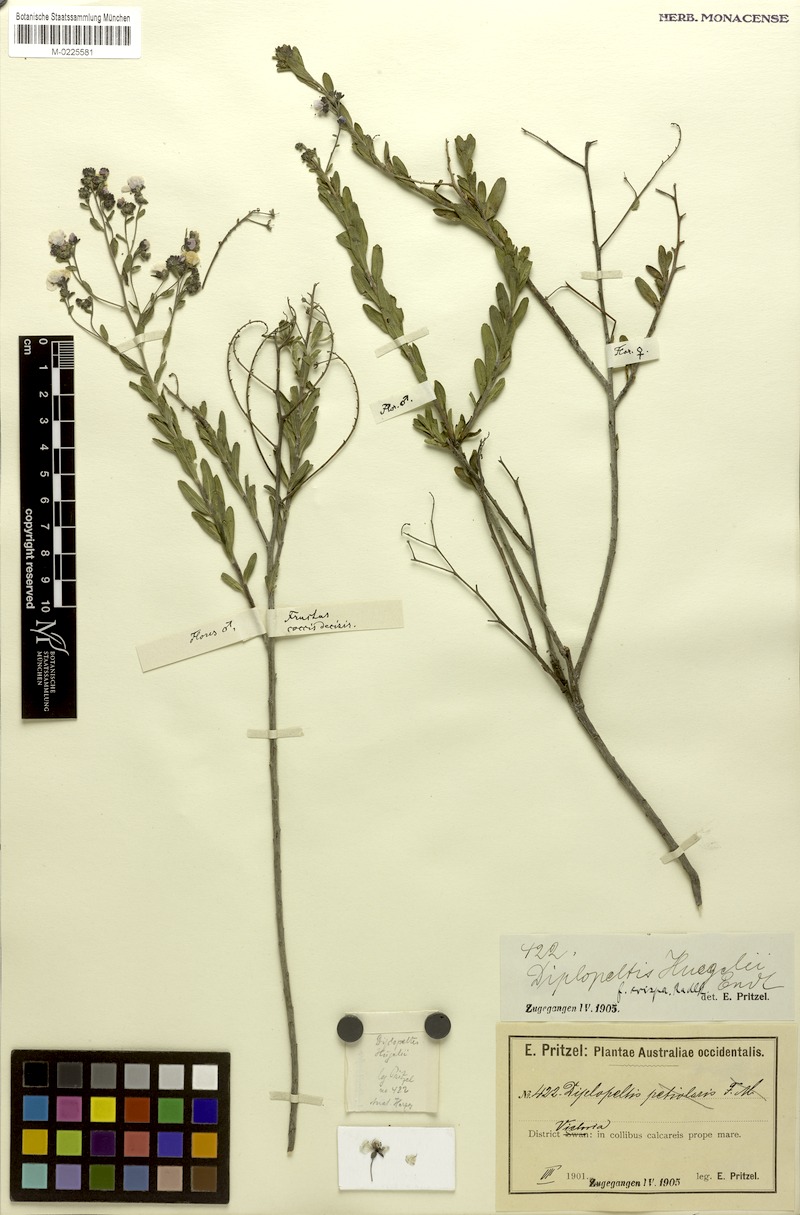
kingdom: Plantae
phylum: Tracheophyta
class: Magnoliopsida
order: Sapindales
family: Sapindaceae
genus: Diplopeltis
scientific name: Diplopeltis huegelii
